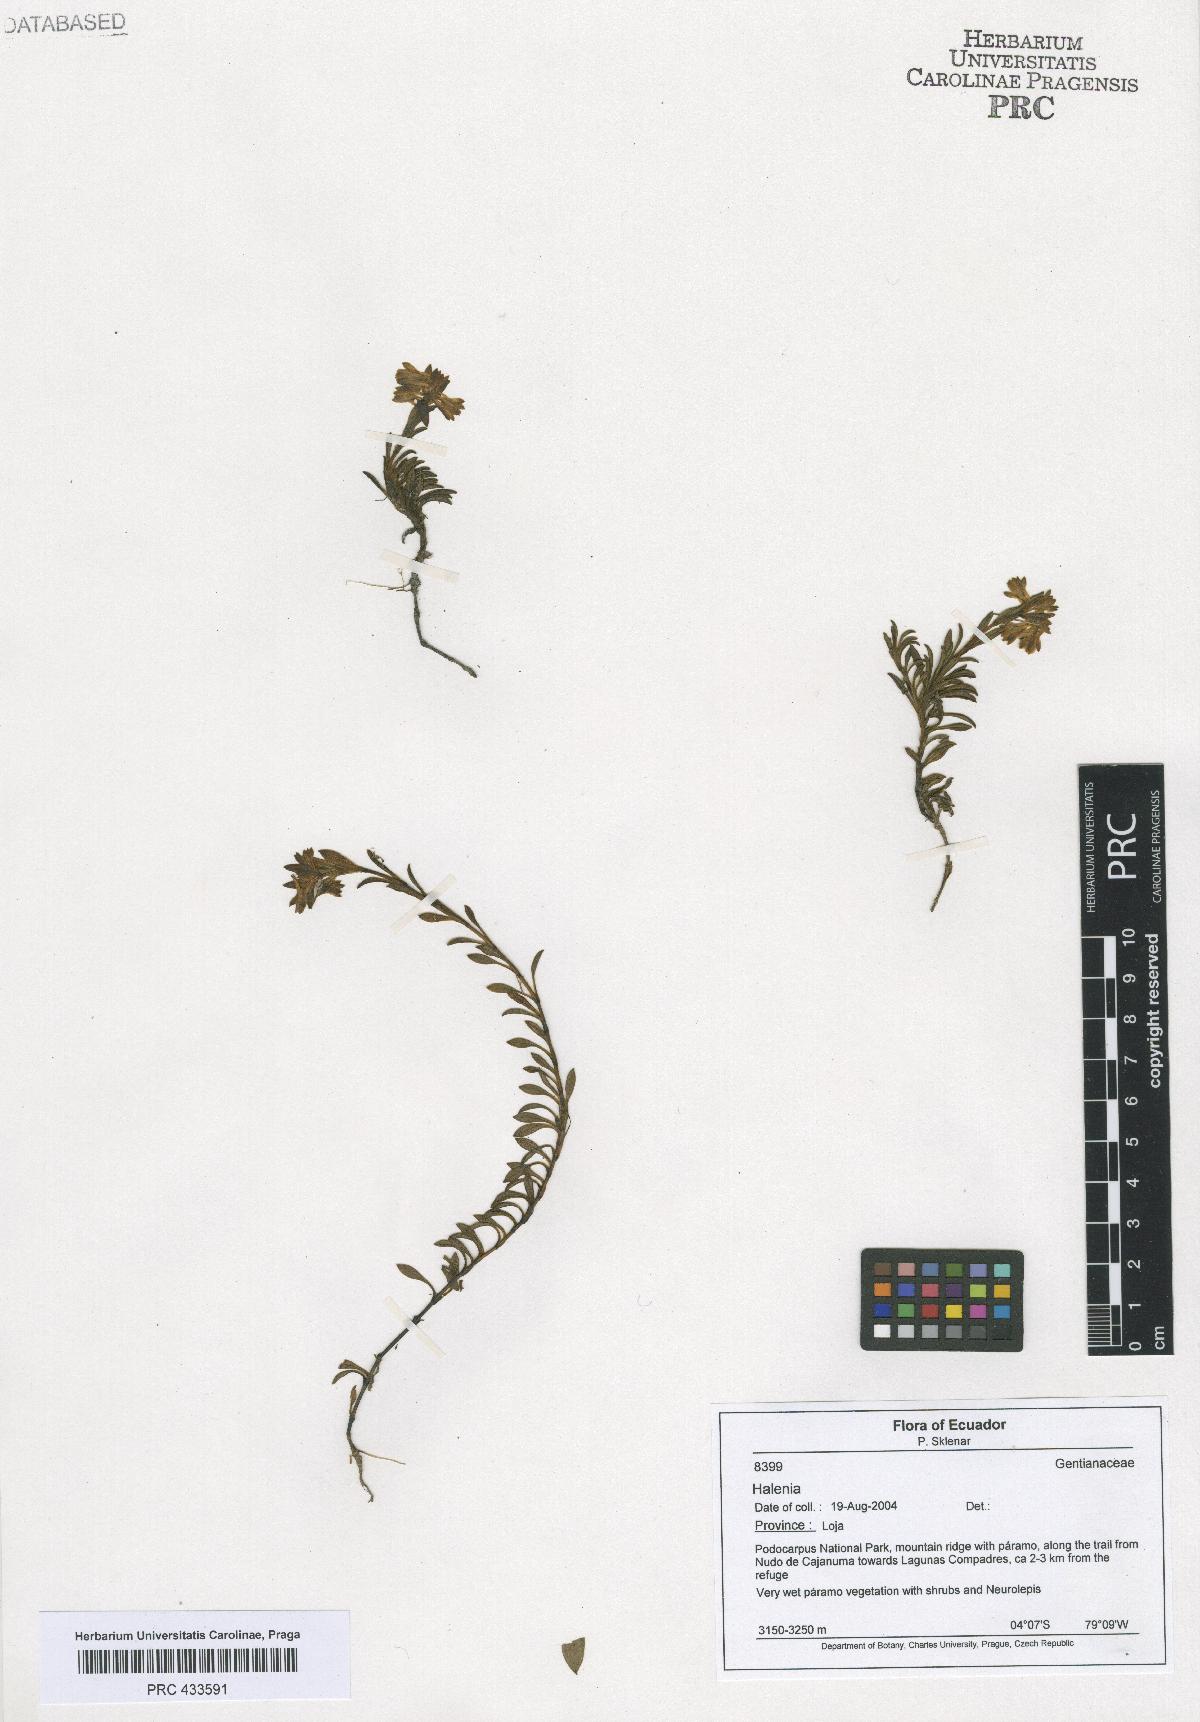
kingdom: Plantae
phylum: Tracheophyta
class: Magnoliopsida
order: Gentianales
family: Gentianaceae
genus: Halenia
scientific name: Halenia
